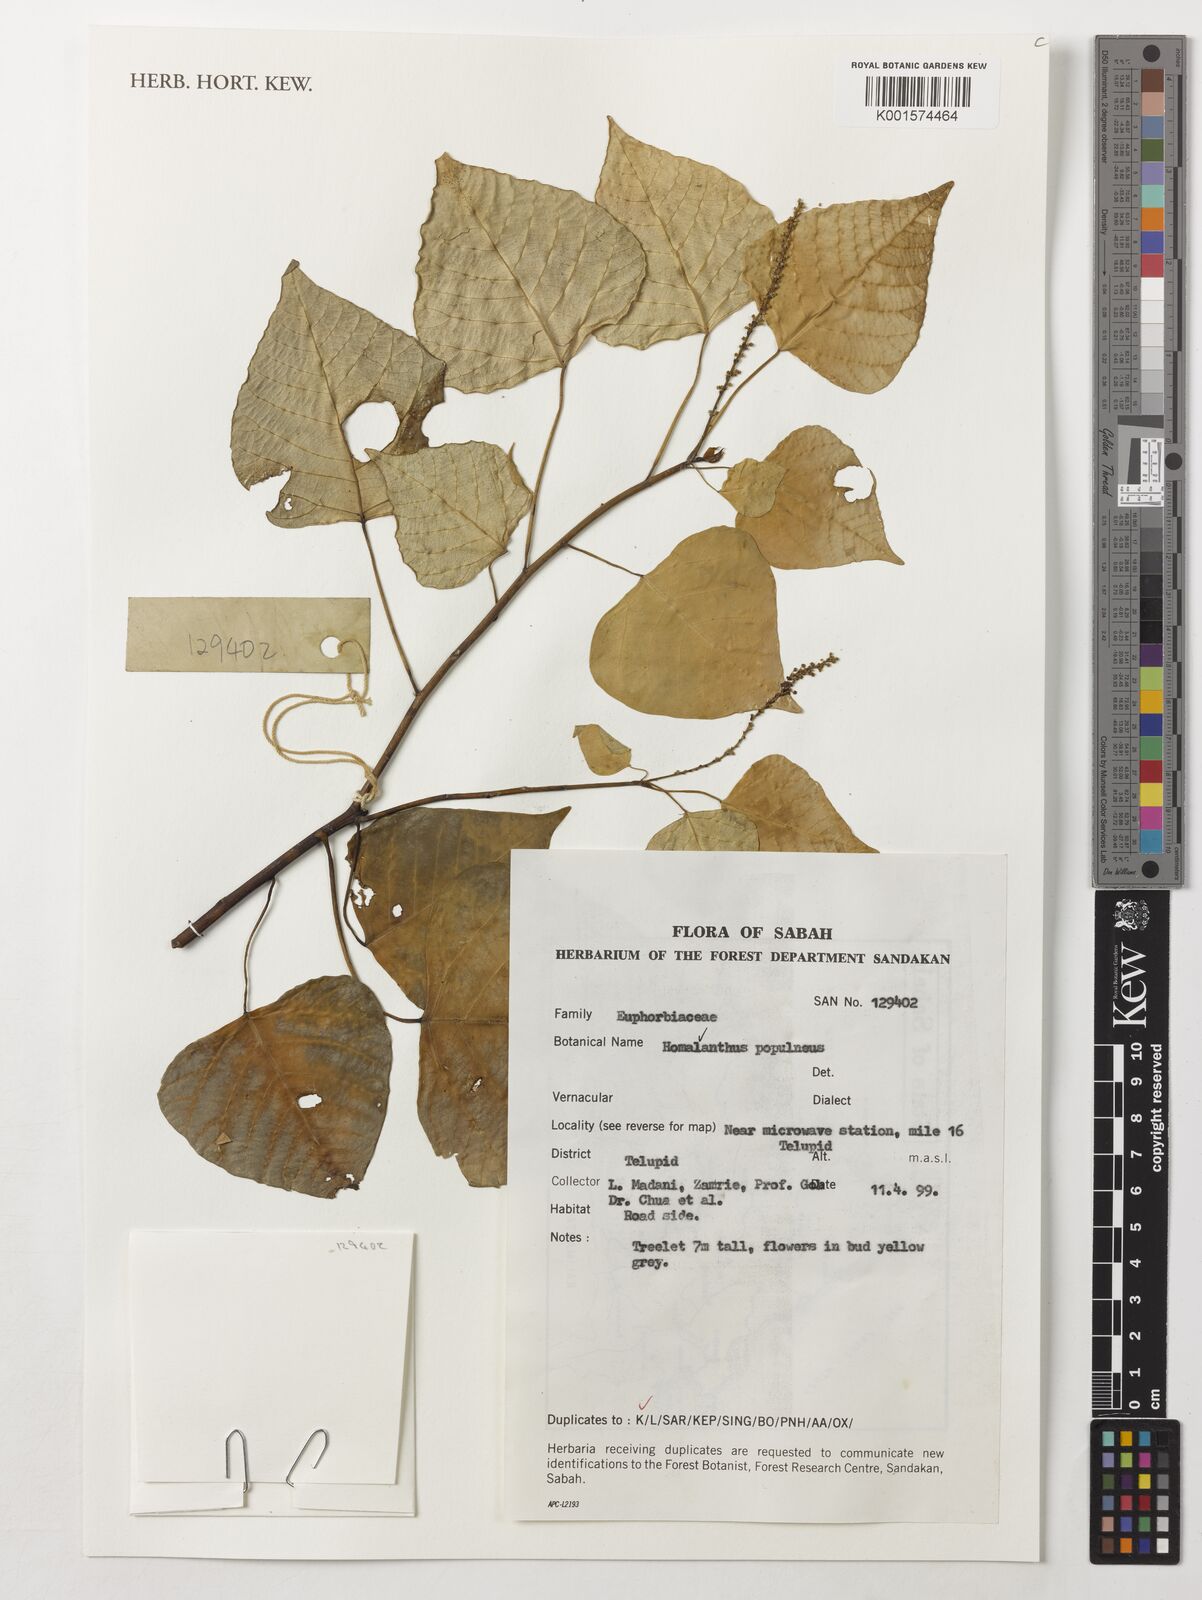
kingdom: Plantae
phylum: Tracheophyta
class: Magnoliopsida
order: Malpighiales
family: Euphorbiaceae
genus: Homalanthus
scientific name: Homalanthus populneus
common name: Spurge
